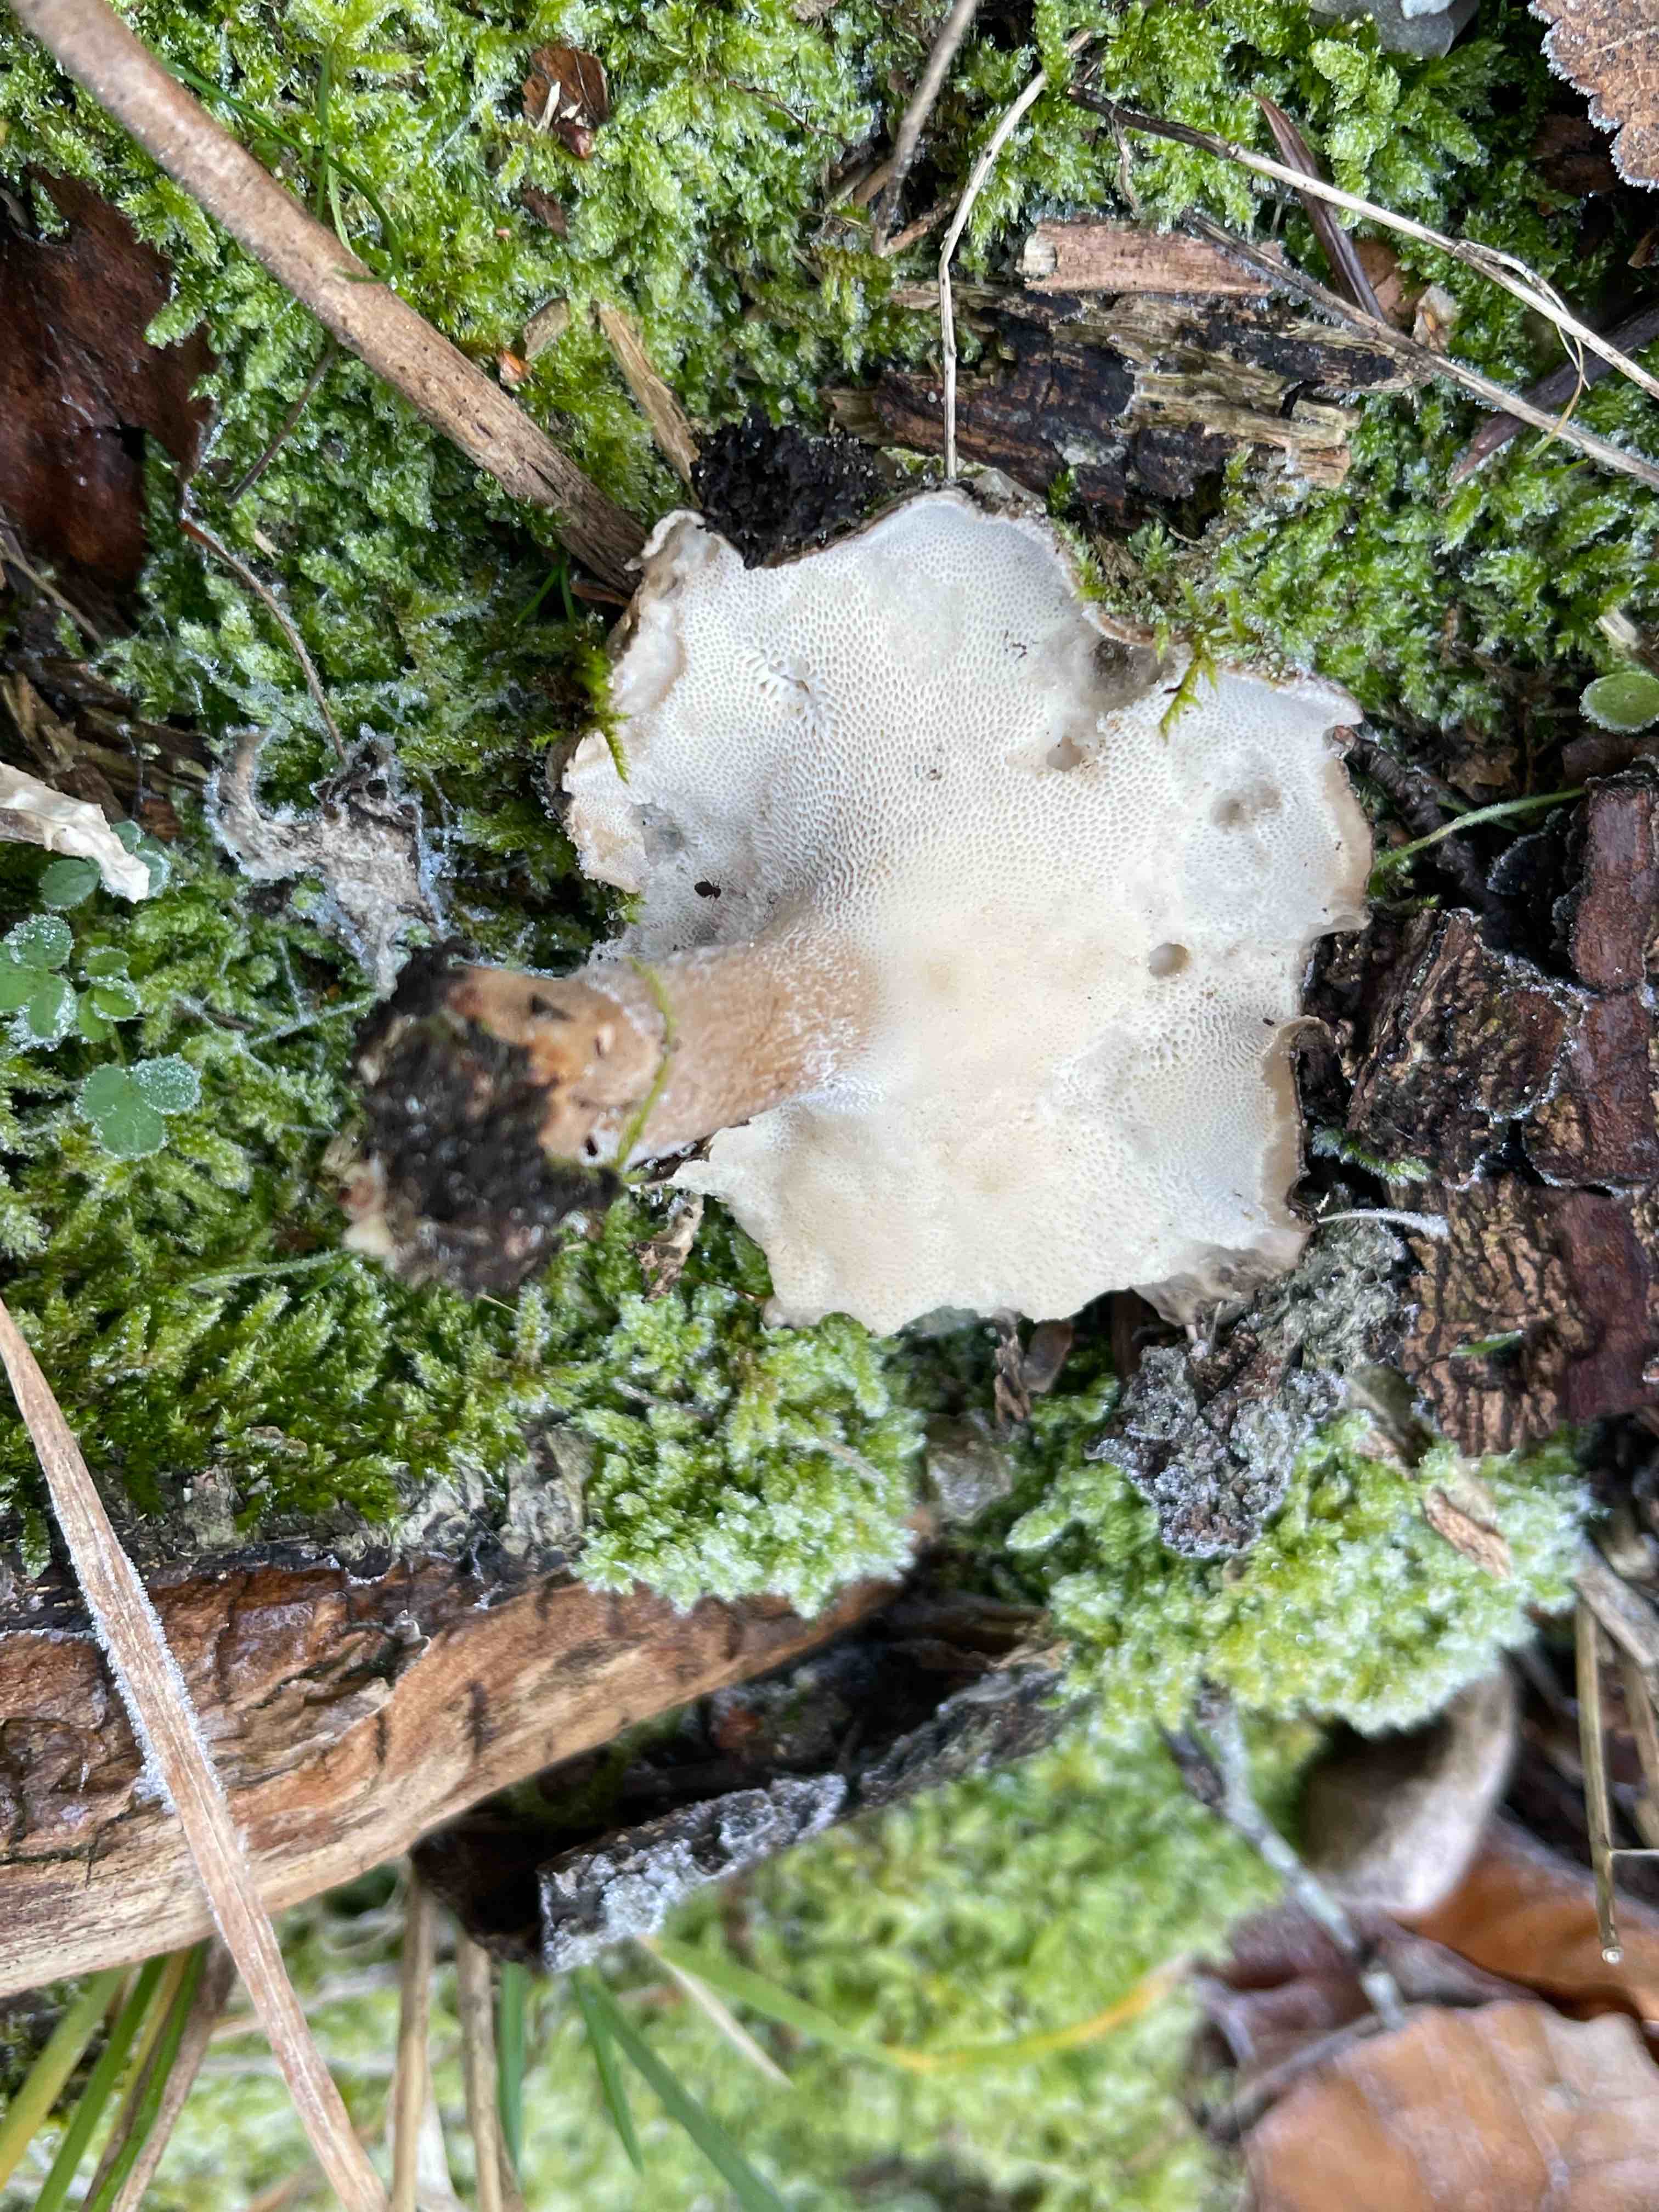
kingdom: Fungi
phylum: Basidiomycota
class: Agaricomycetes
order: Polyporales
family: Polyporaceae
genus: Lentinus
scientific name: Lentinus brumalis
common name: vinter-stilkporesvamp
